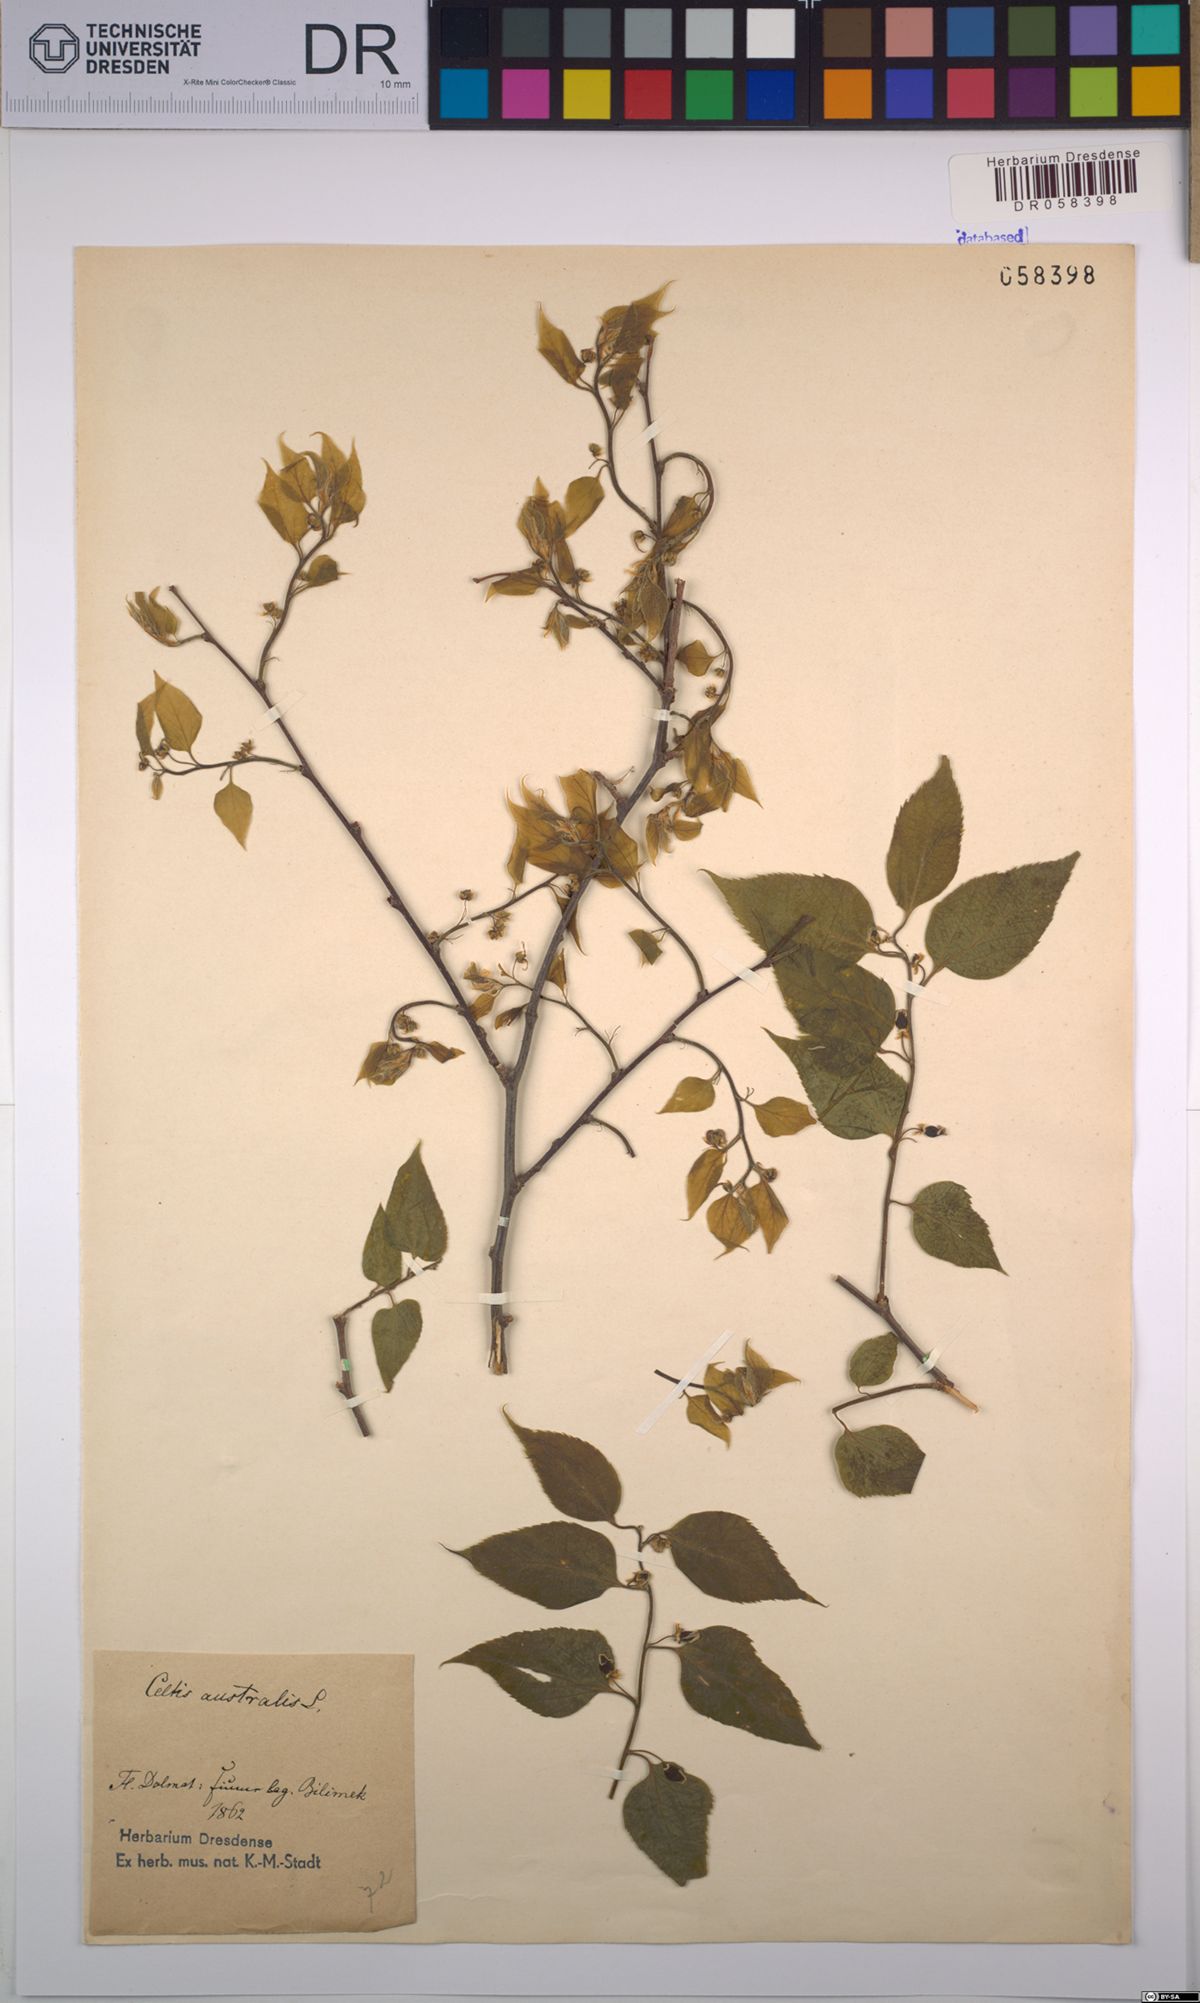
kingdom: Plantae
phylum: Tracheophyta
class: Magnoliopsida
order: Rosales
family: Cannabaceae
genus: Celtis
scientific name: Celtis australis
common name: European hackberry
